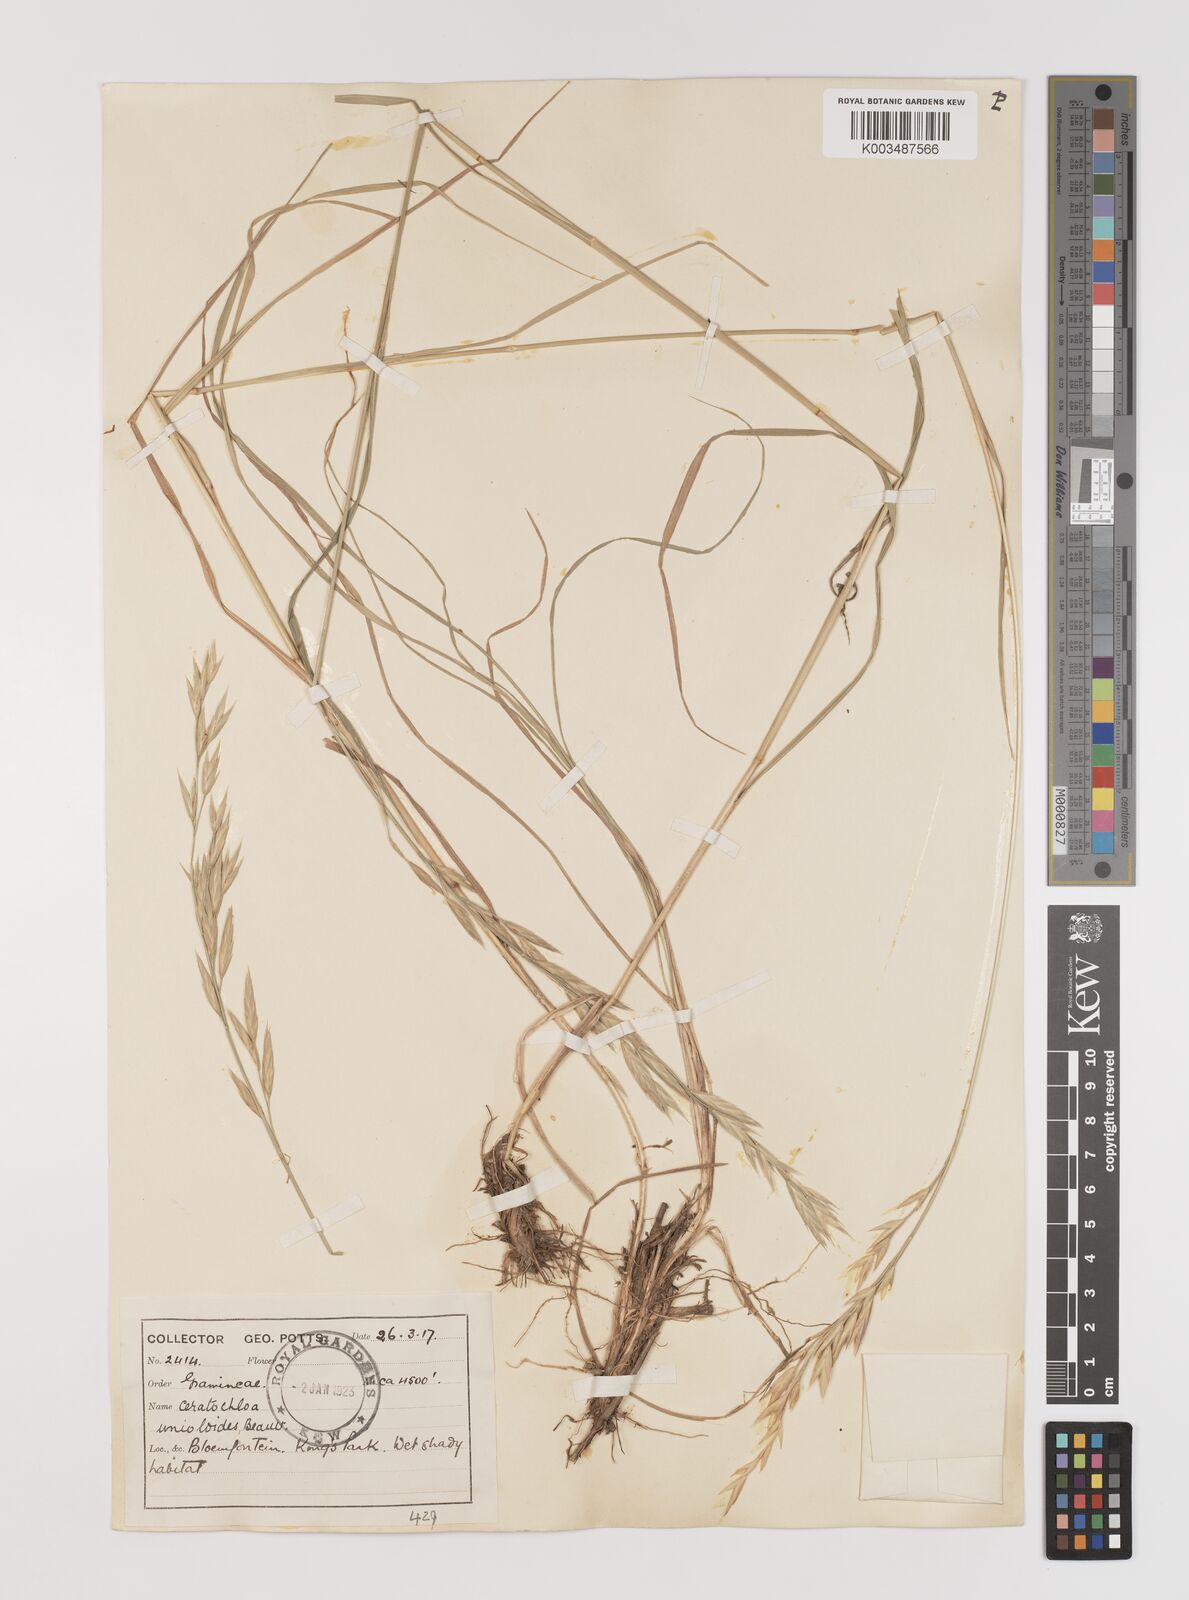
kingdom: Plantae
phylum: Tracheophyta
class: Liliopsida
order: Poales
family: Poaceae
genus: Bromus
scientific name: Bromus catharticus
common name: Rescuegrass
